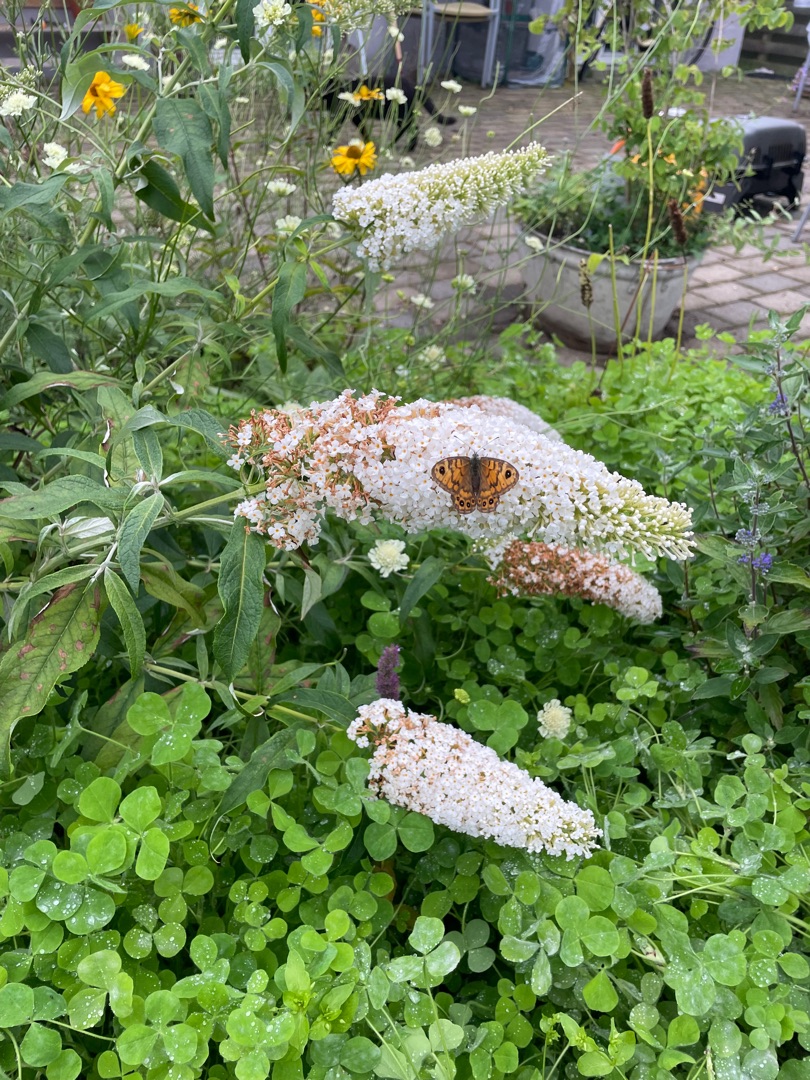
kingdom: Animalia
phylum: Arthropoda
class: Insecta
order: Lepidoptera
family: Nymphalidae
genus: Pararge
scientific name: Pararge Lasiommata megera
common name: Vejrandøje
